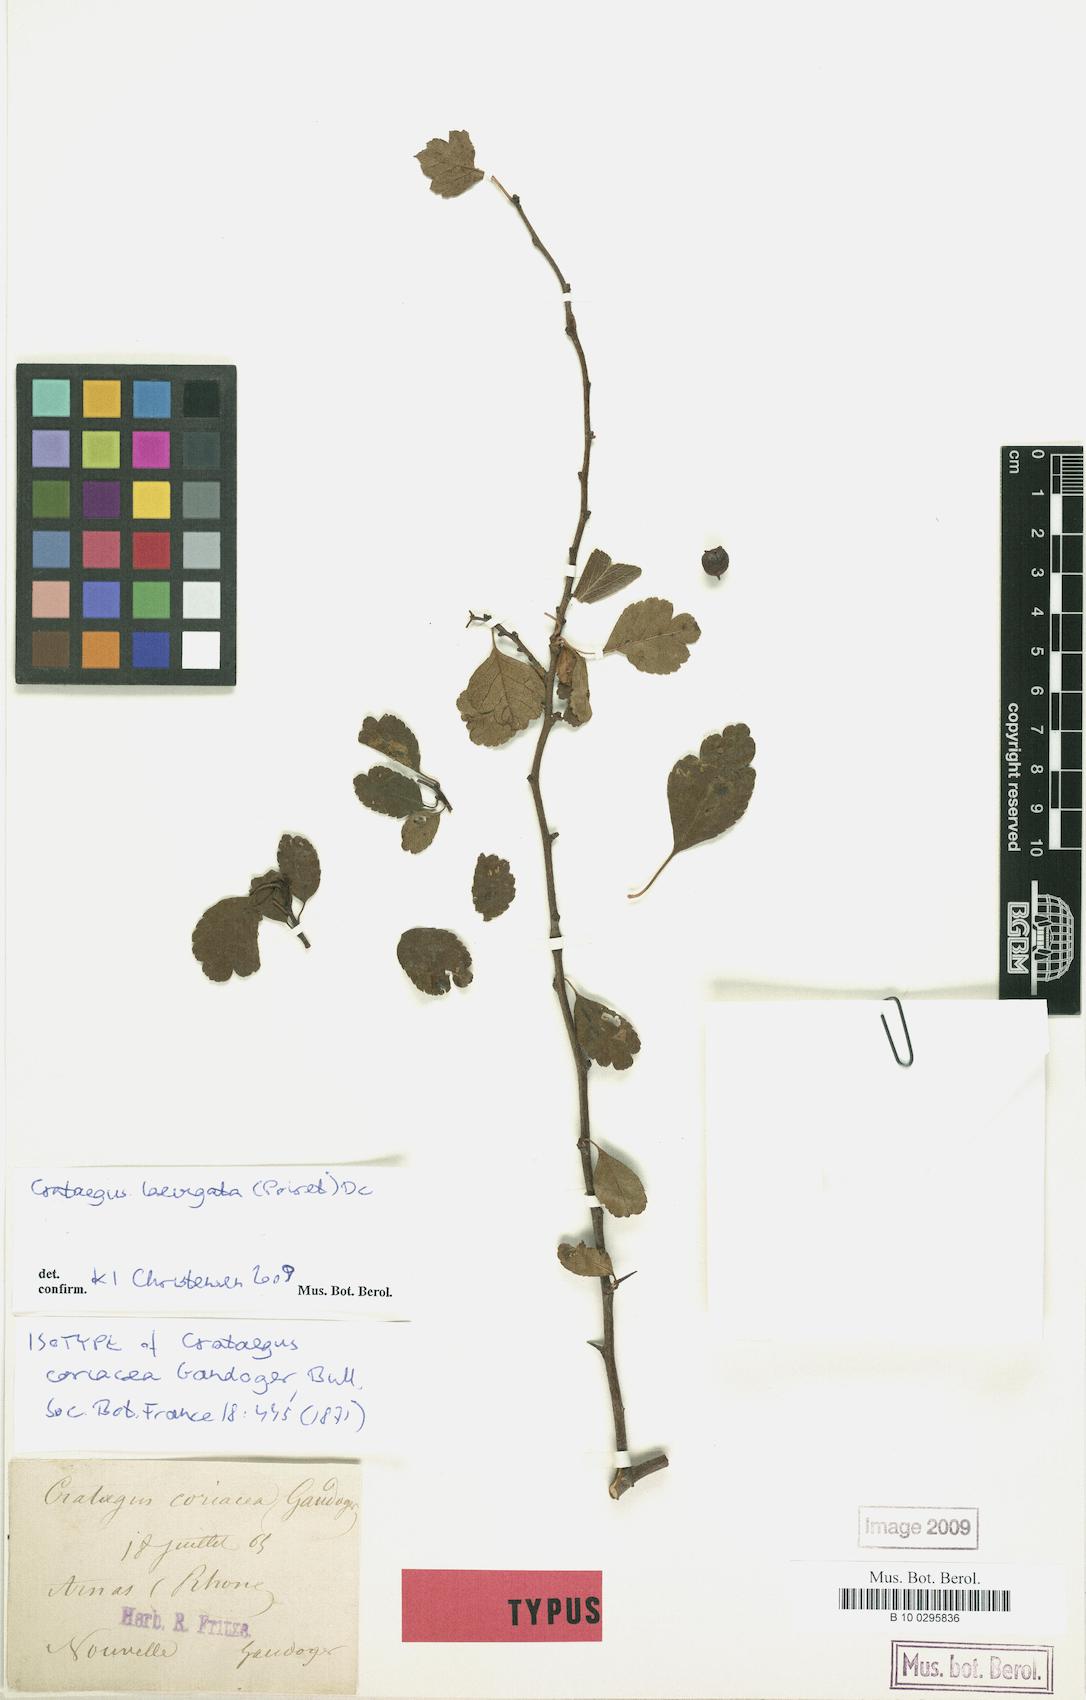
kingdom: Plantae
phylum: Tracheophyta
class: Magnoliopsida
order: Rosales
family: Rosaceae
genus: Crataegus
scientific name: Crataegus laevigata
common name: Midland hawthorn
